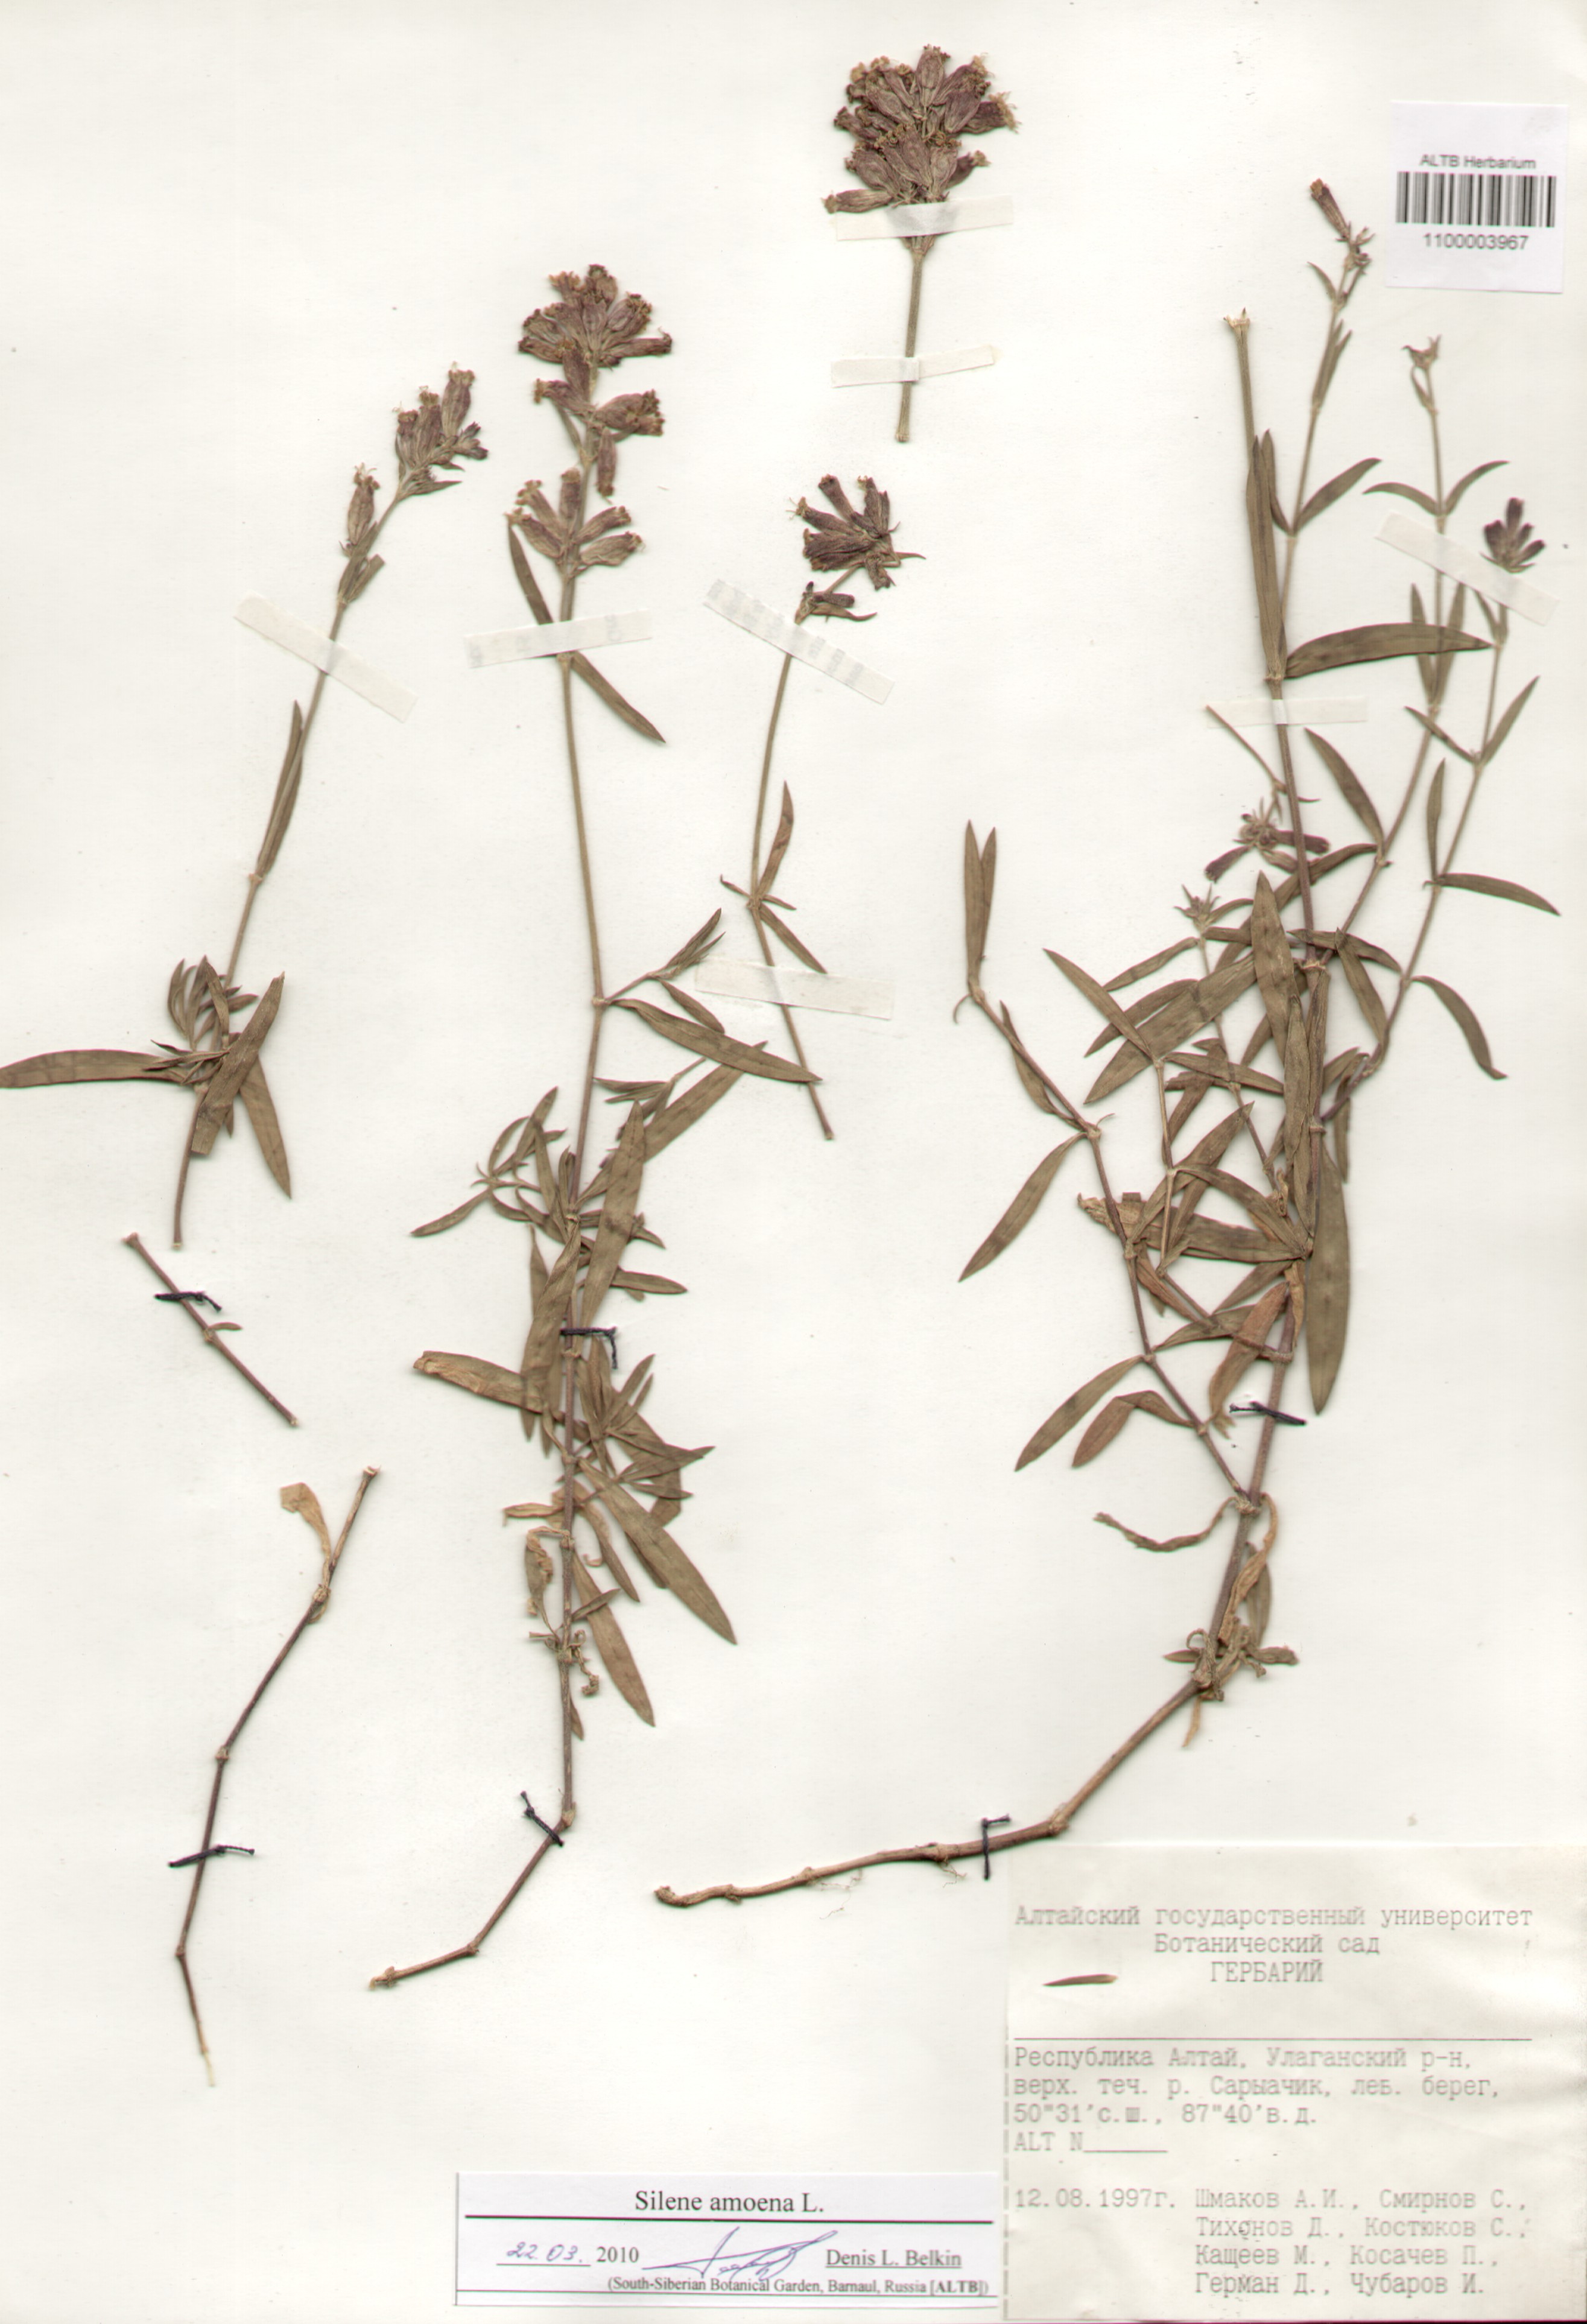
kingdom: Plantae
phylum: Tracheophyta
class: Magnoliopsida
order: Caryophyllales
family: Caryophyllaceae
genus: Silene
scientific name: Silene amoena
